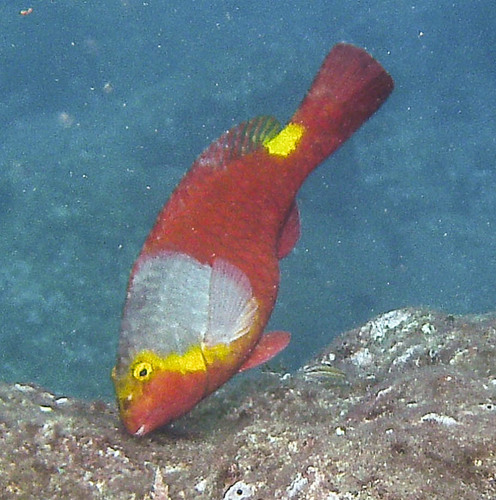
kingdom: Animalia
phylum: Chordata
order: Perciformes
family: Scaridae
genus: Sparisoma
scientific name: Sparisoma cretense
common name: Parrotfish
